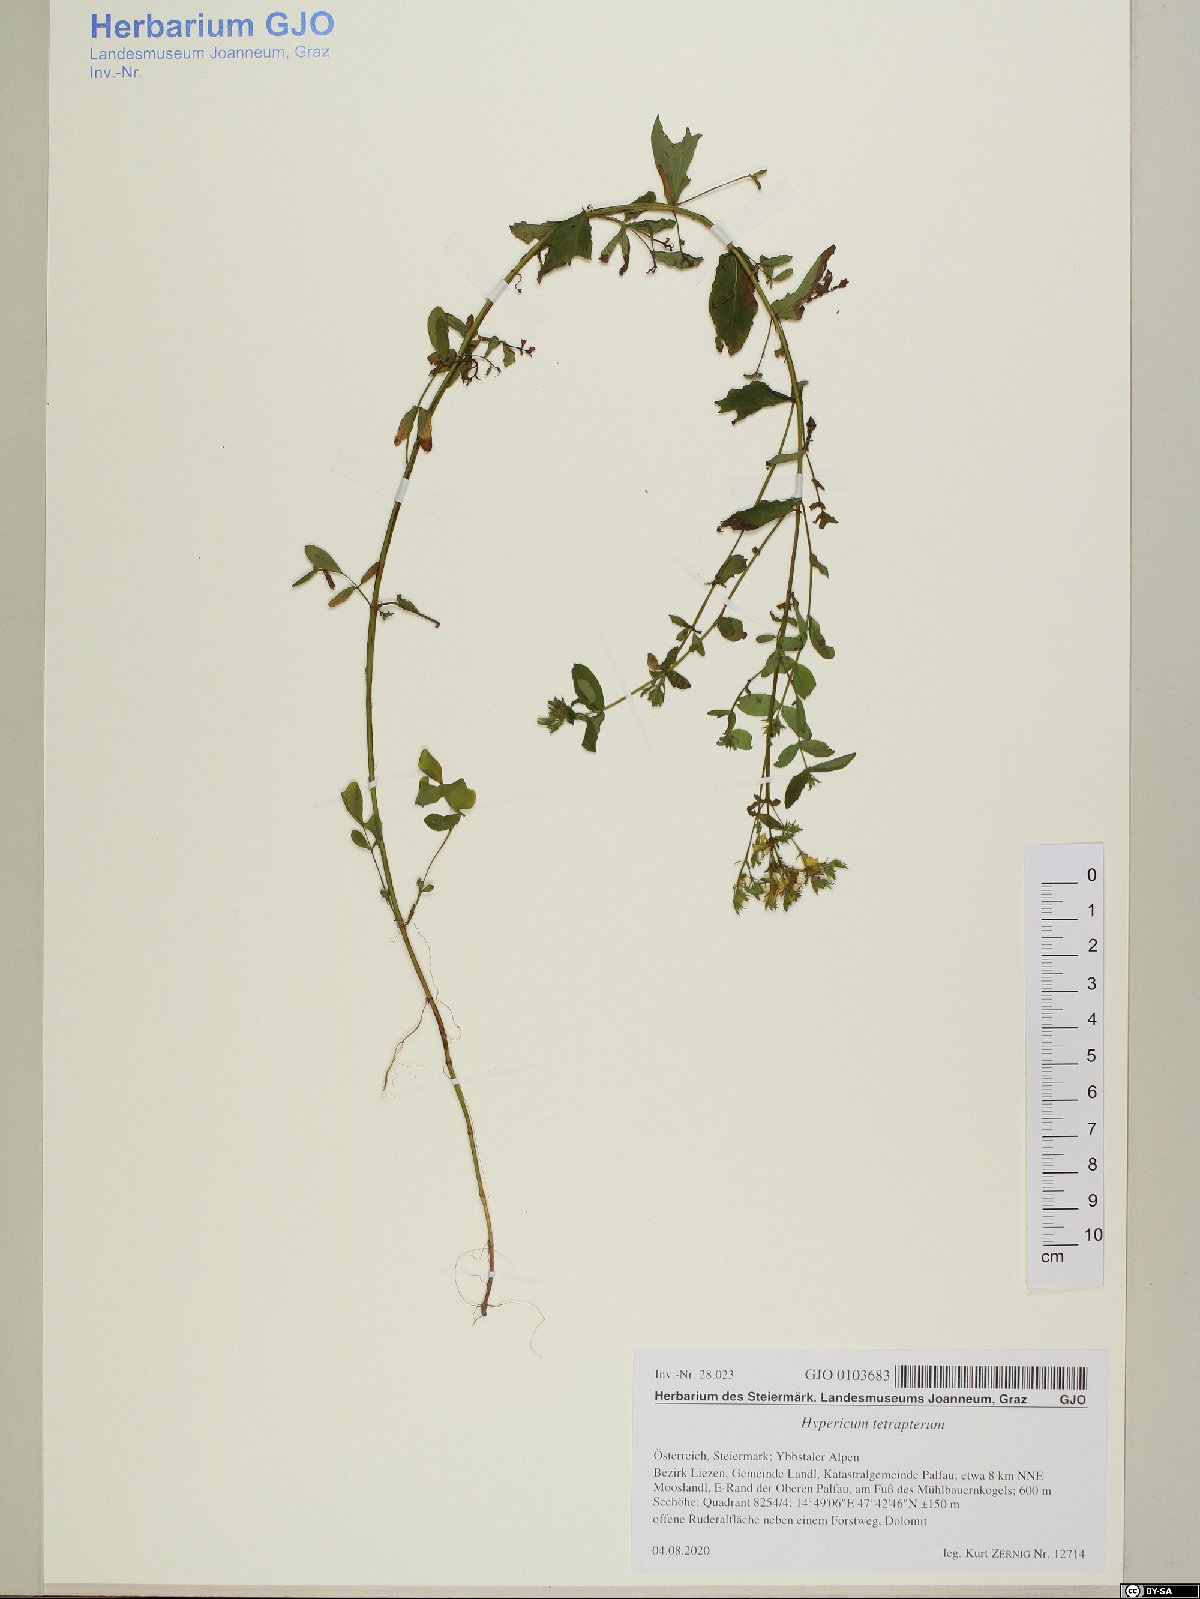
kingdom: Plantae
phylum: Tracheophyta
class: Magnoliopsida
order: Malpighiales
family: Hypericaceae
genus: Hypericum
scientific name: Hypericum tetrapterum
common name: Square-stalked st. john's-wort
